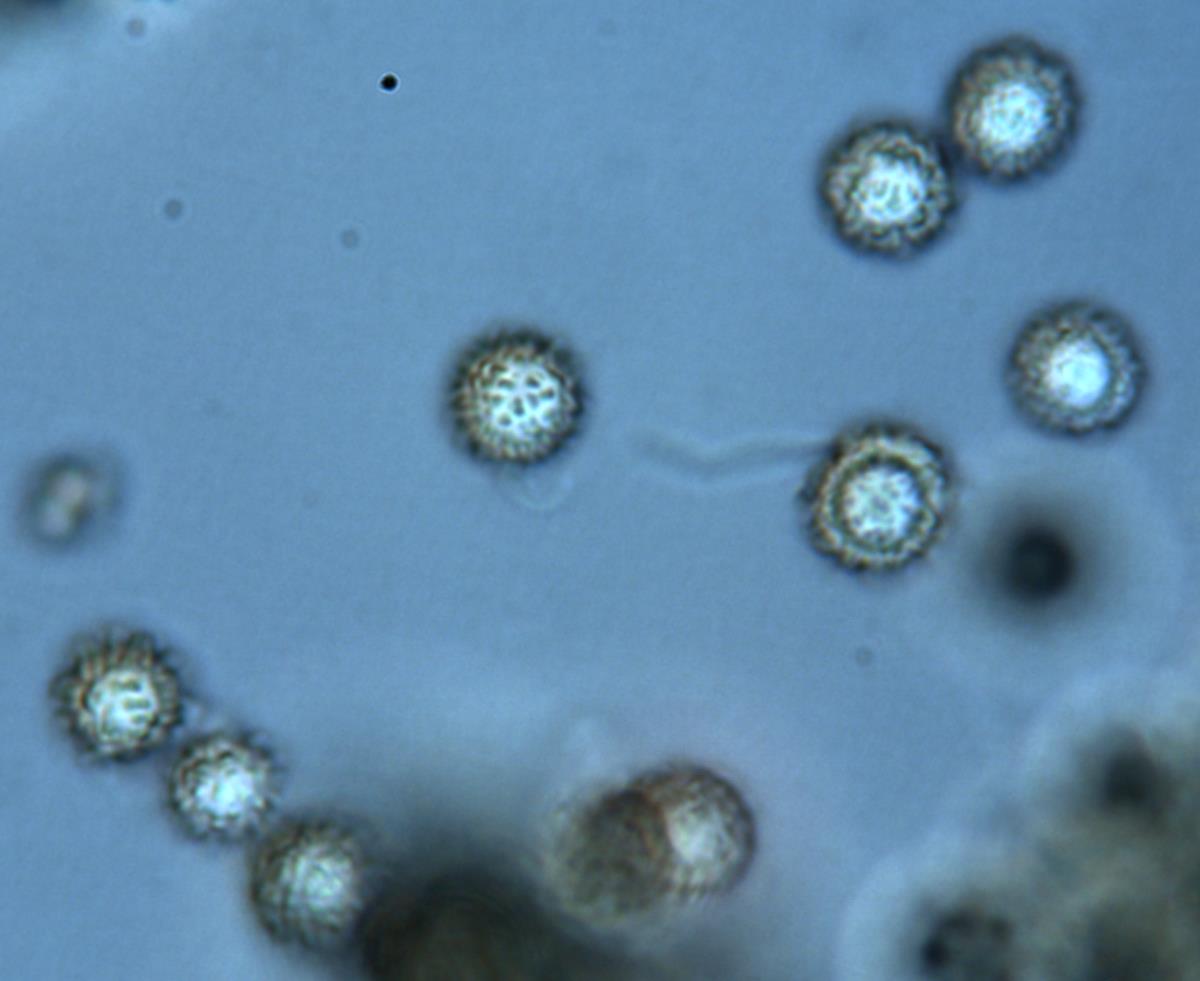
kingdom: Fungi
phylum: Basidiomycota
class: Agaricomycetes
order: Boletales
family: Sclerodermataceae
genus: Pisolithus
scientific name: Pisolithus thermaeus
